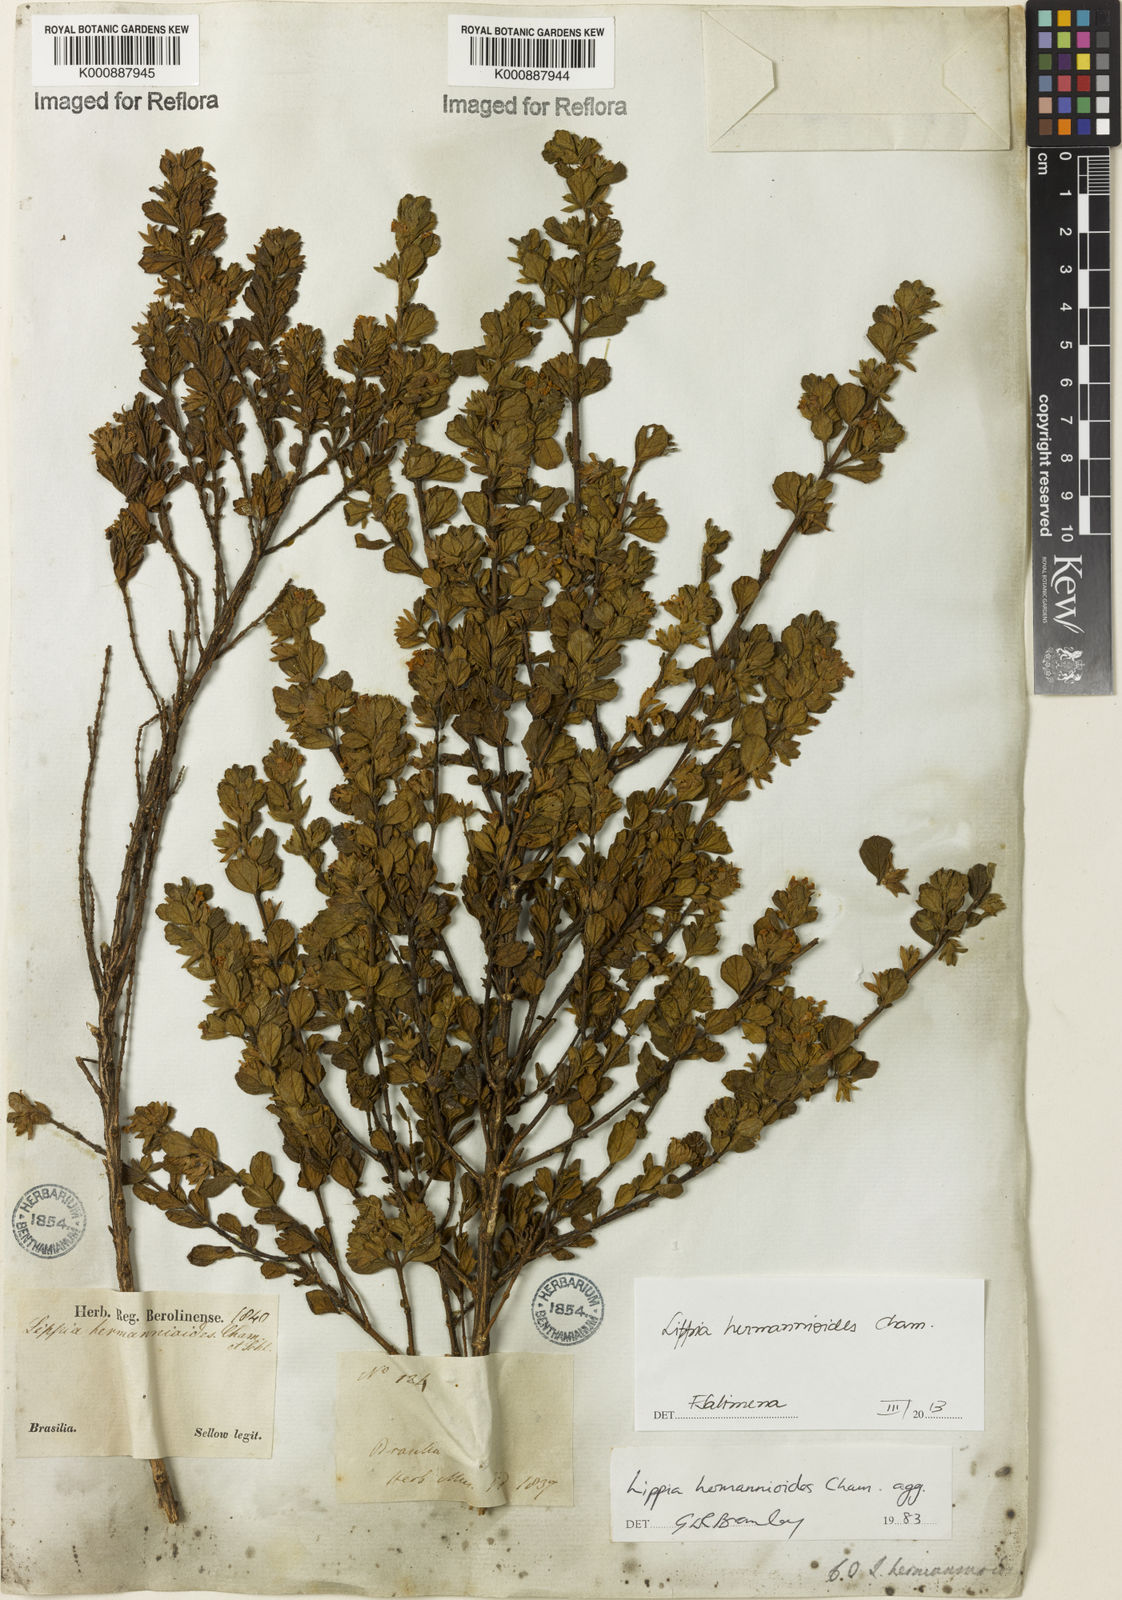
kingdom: Plantae
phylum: Tracheophyta
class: Magnoliopsida
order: Lamiales
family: Verbenaceae
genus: Lippia
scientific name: Lippia hermannioides
